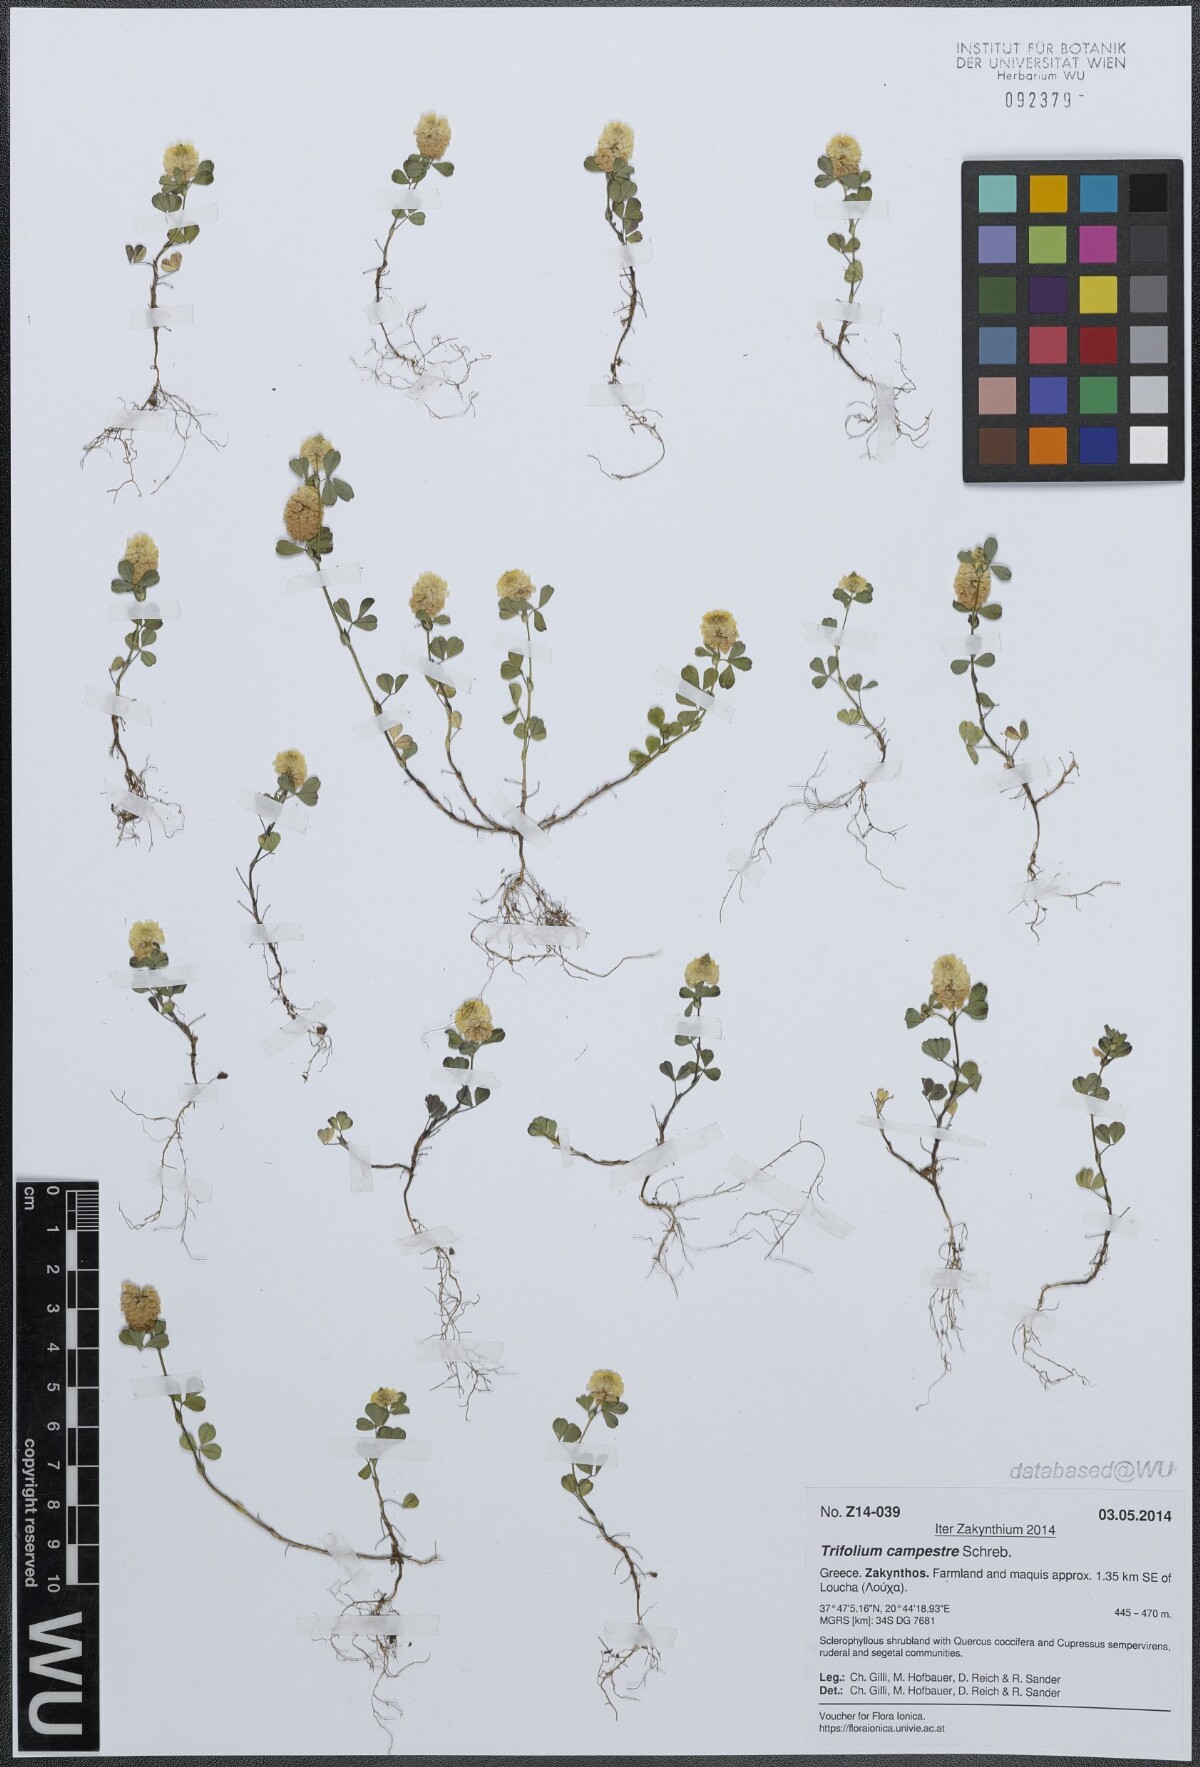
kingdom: Plantae
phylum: Tracheophyta
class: Magnoliopsida
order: Fabales
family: Fabaceae
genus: Trifolium
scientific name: Trifolium campestre
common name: Field clover
